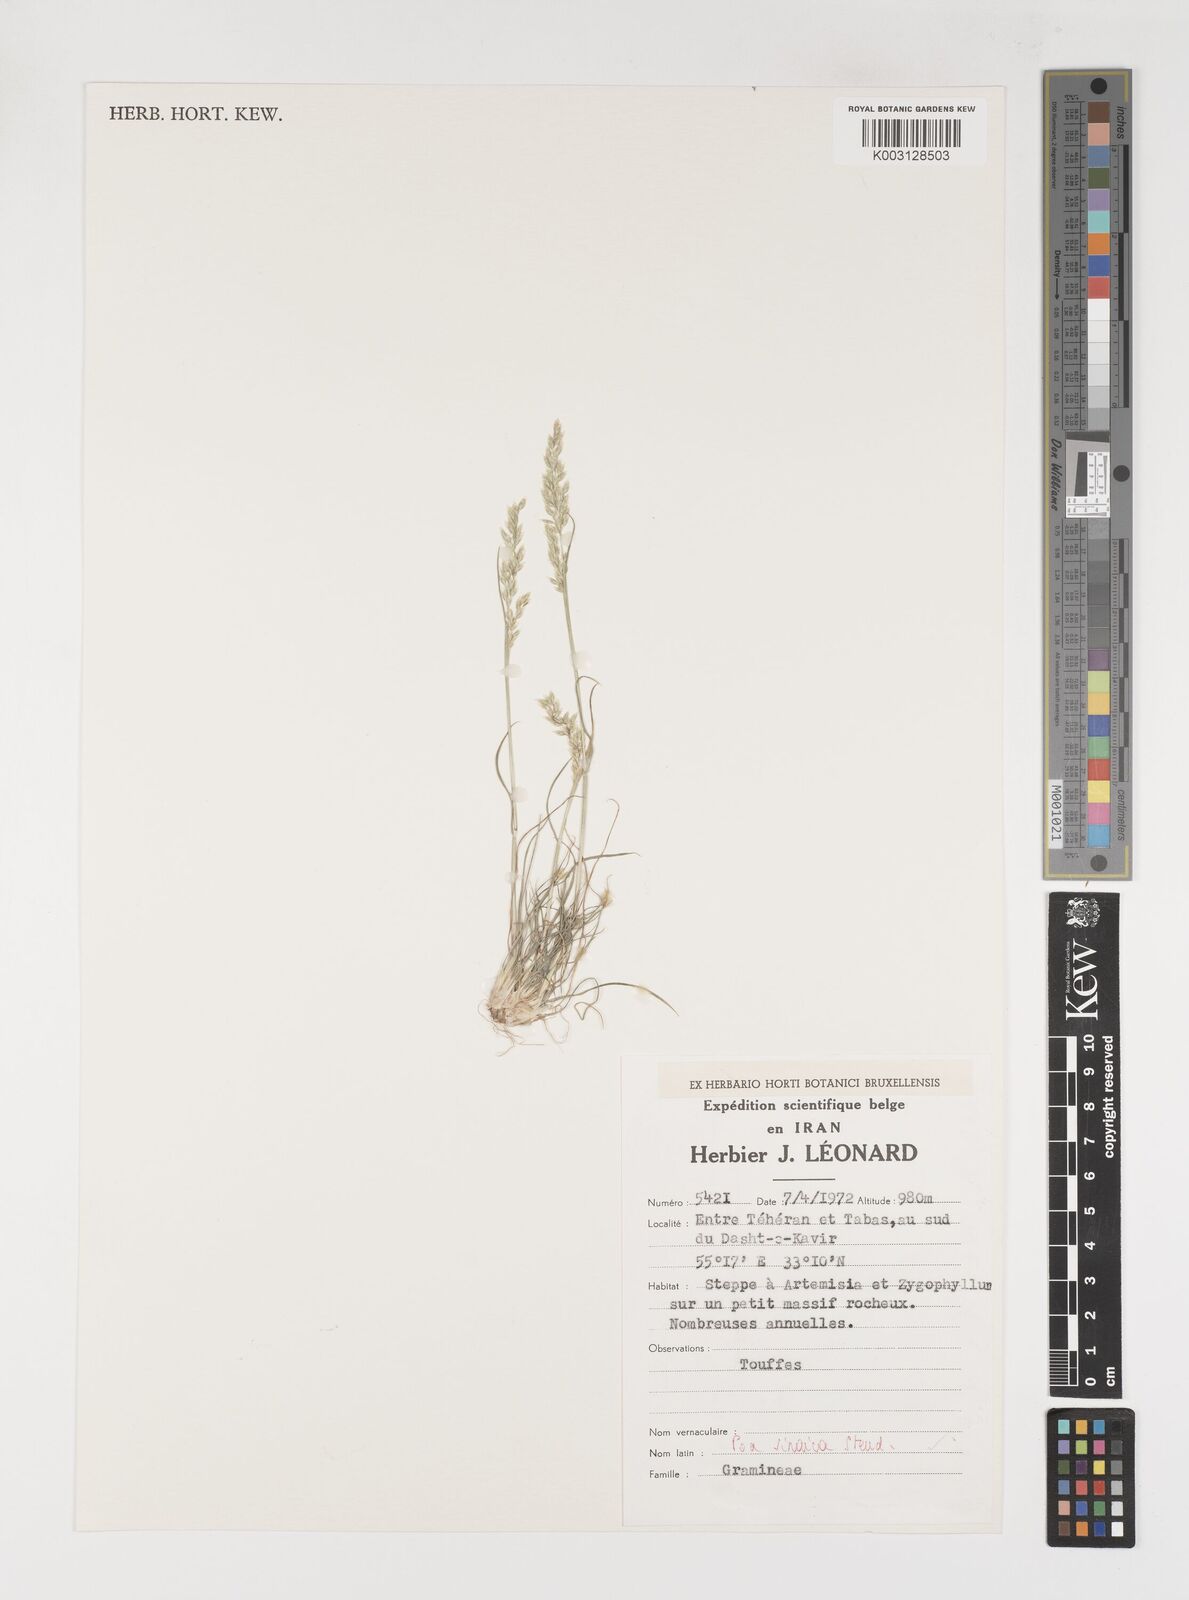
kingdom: Plantae
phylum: Tracheophyta
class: Liliopsida
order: Poales
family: Poaceae
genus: Poa
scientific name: Poa sinaica
